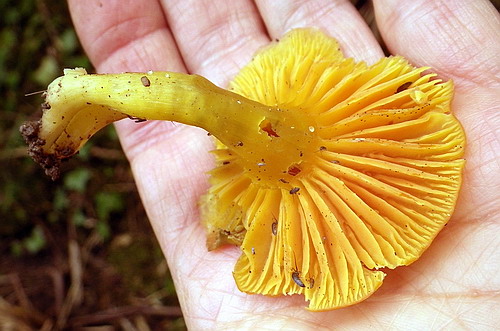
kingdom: Fungi
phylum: Basidiomycota
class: Agaricomycetes
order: Agaricales
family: Hygrophoraceae
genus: Hygrocybe
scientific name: Hygrocybe quieta
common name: tæge-vokshat
